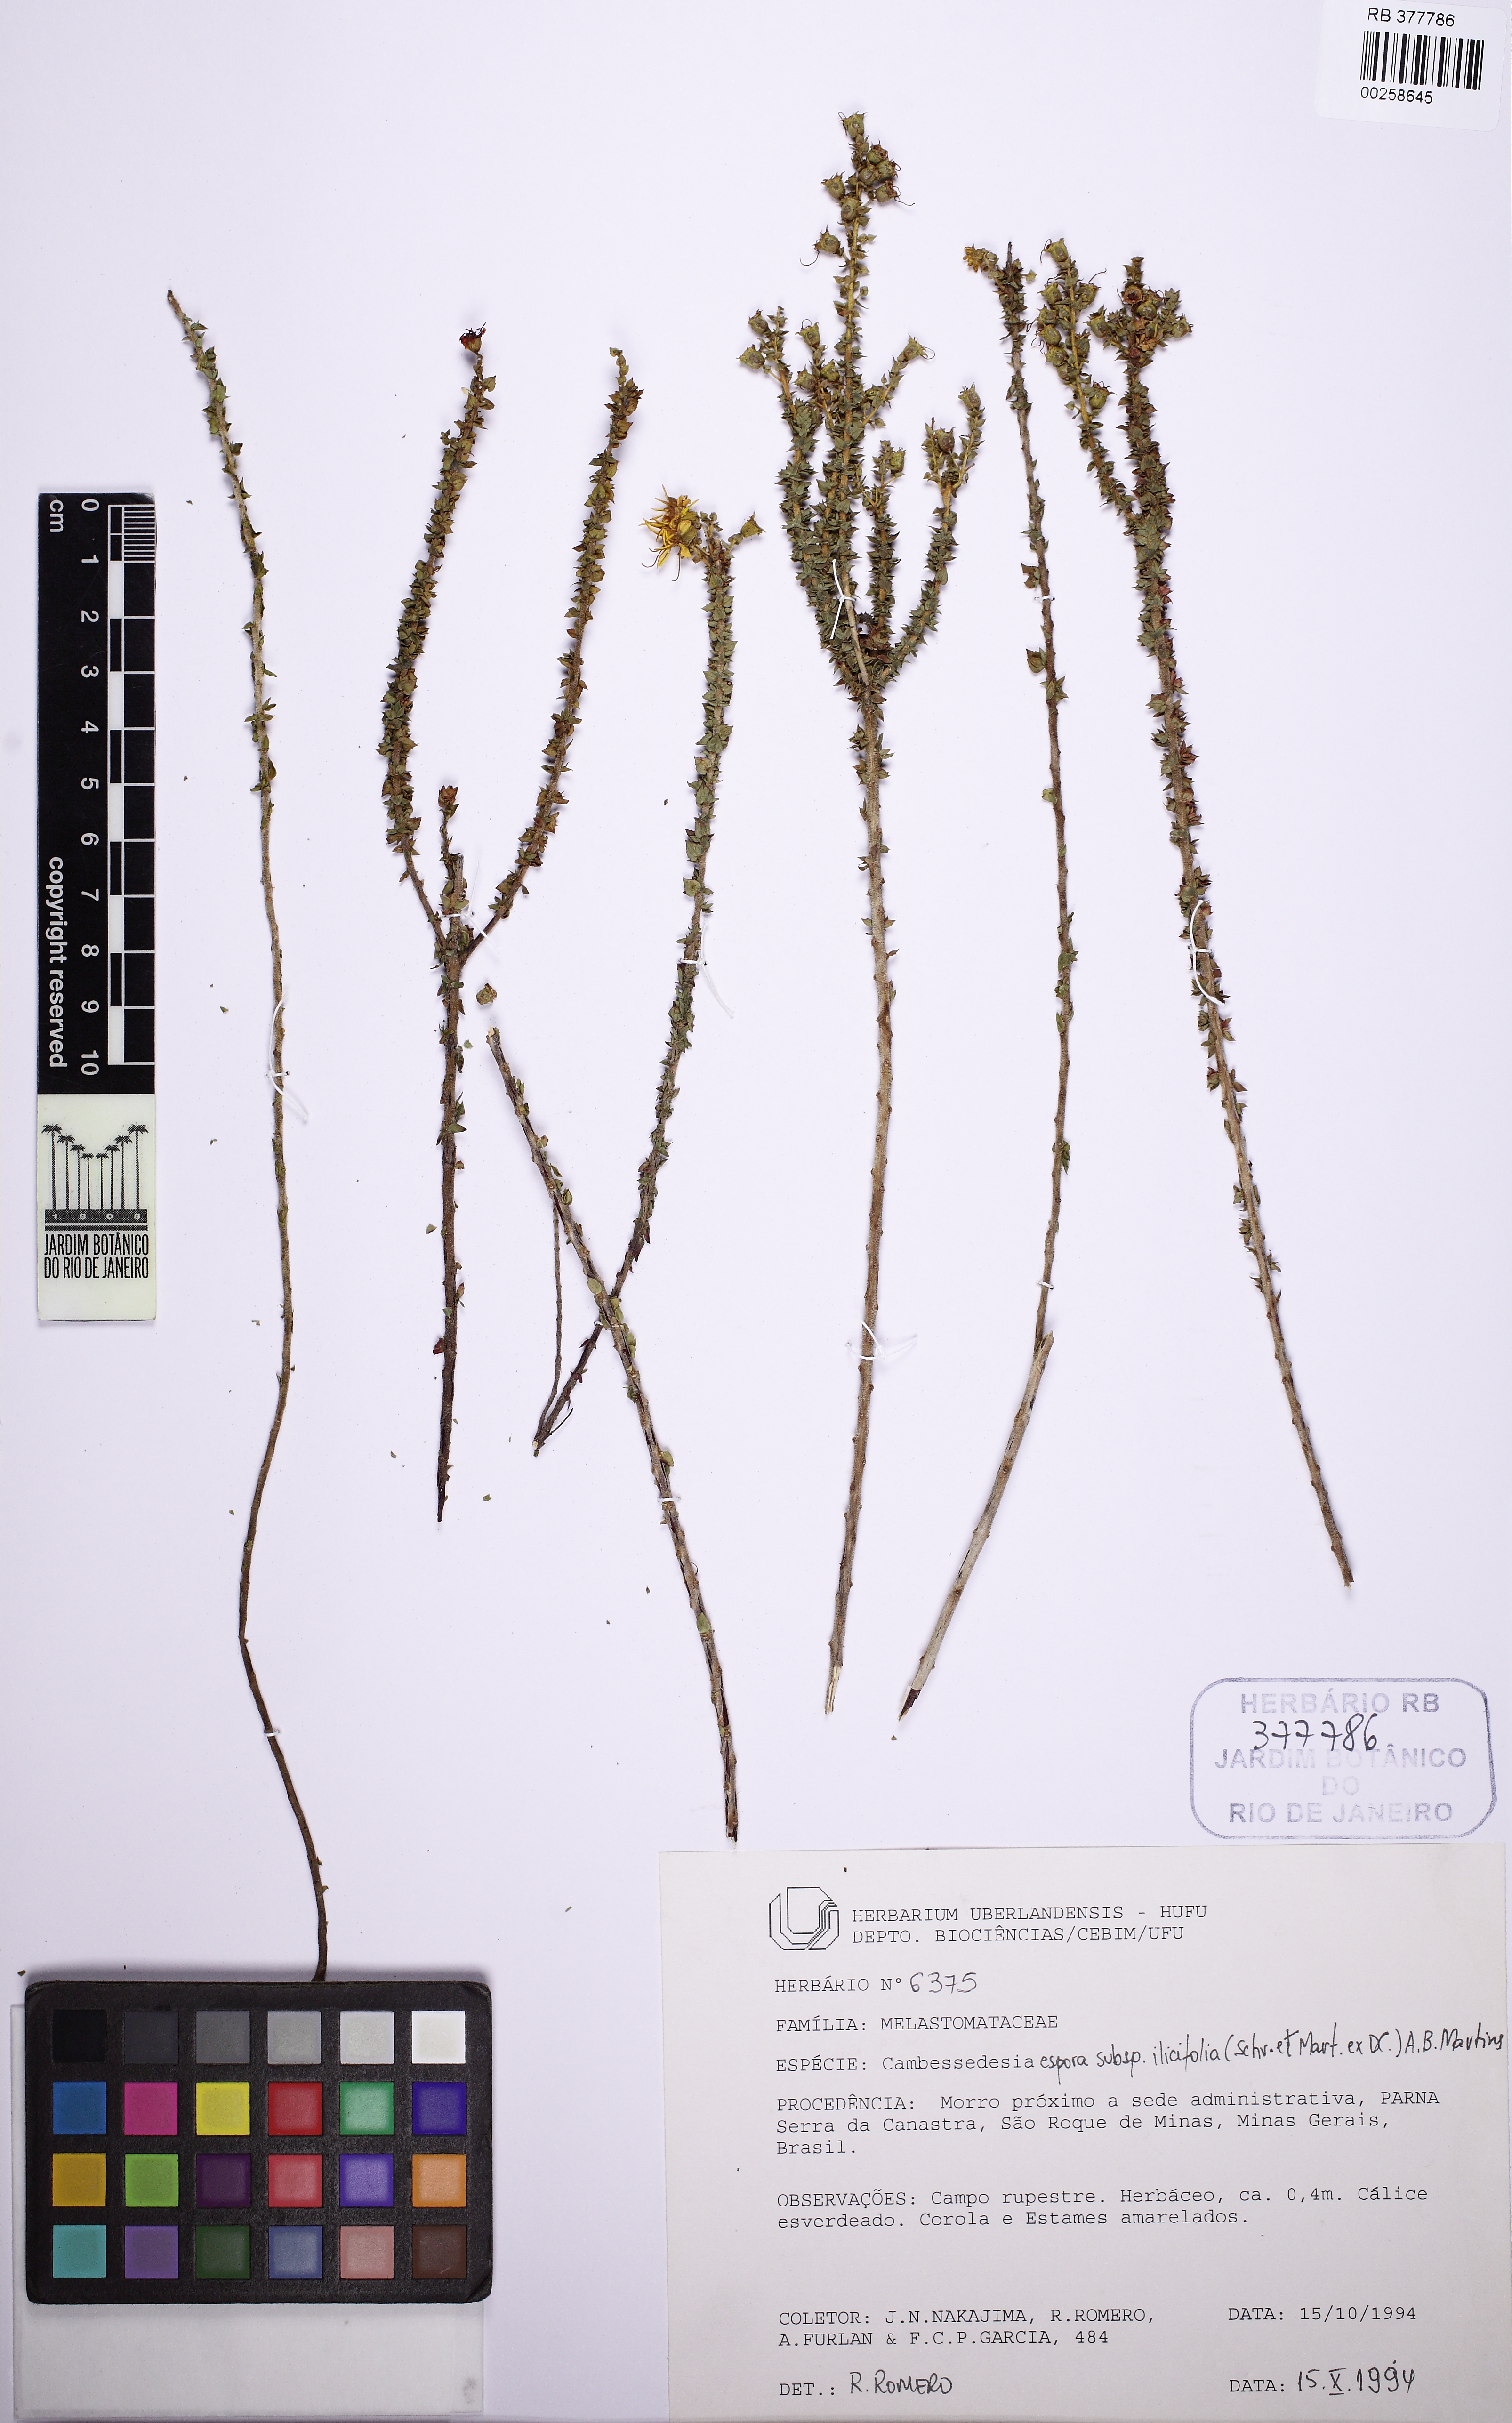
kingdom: Plantae
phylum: Tracheophyta
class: Magnoliopsida
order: Myrtales
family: Melastomataceae
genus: Cambessedesia
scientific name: Cambessedesia espora
